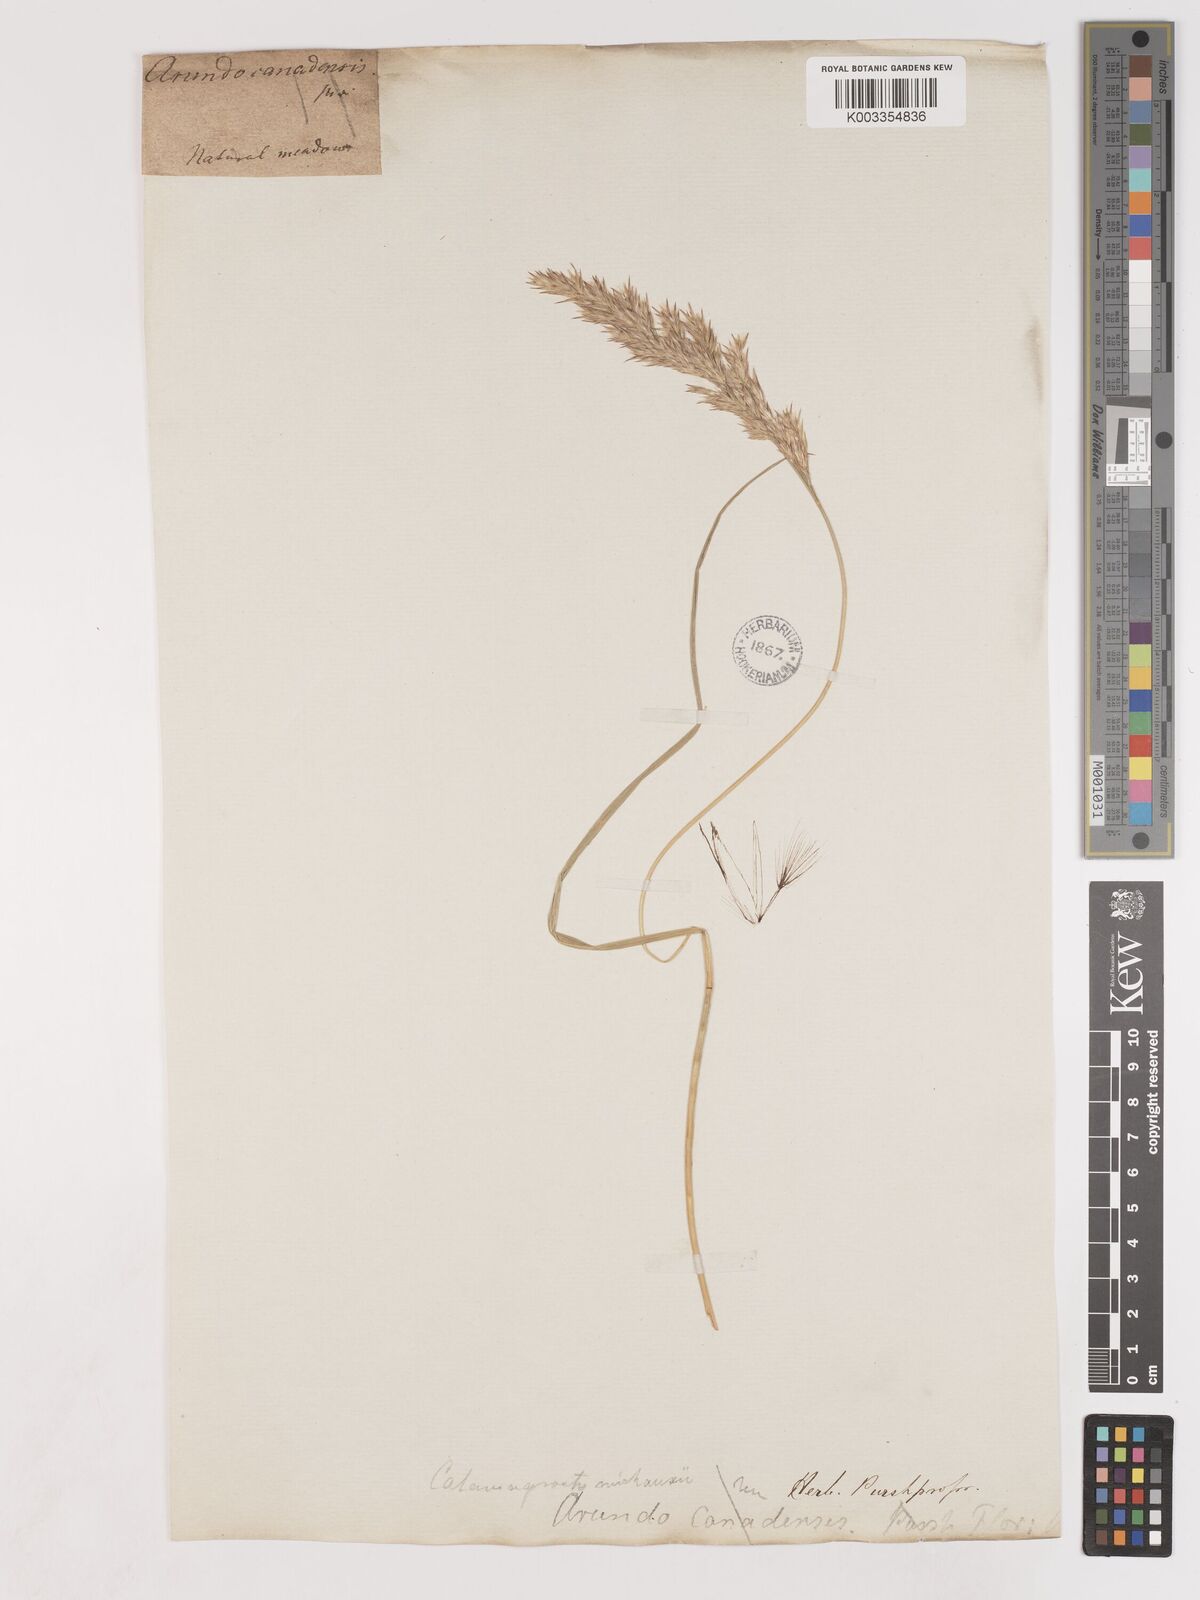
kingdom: Plantae
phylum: Tracheophyta
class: Liliopsida
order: Poales
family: Poaceae
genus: Calamagrostis
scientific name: Calamagrostis
